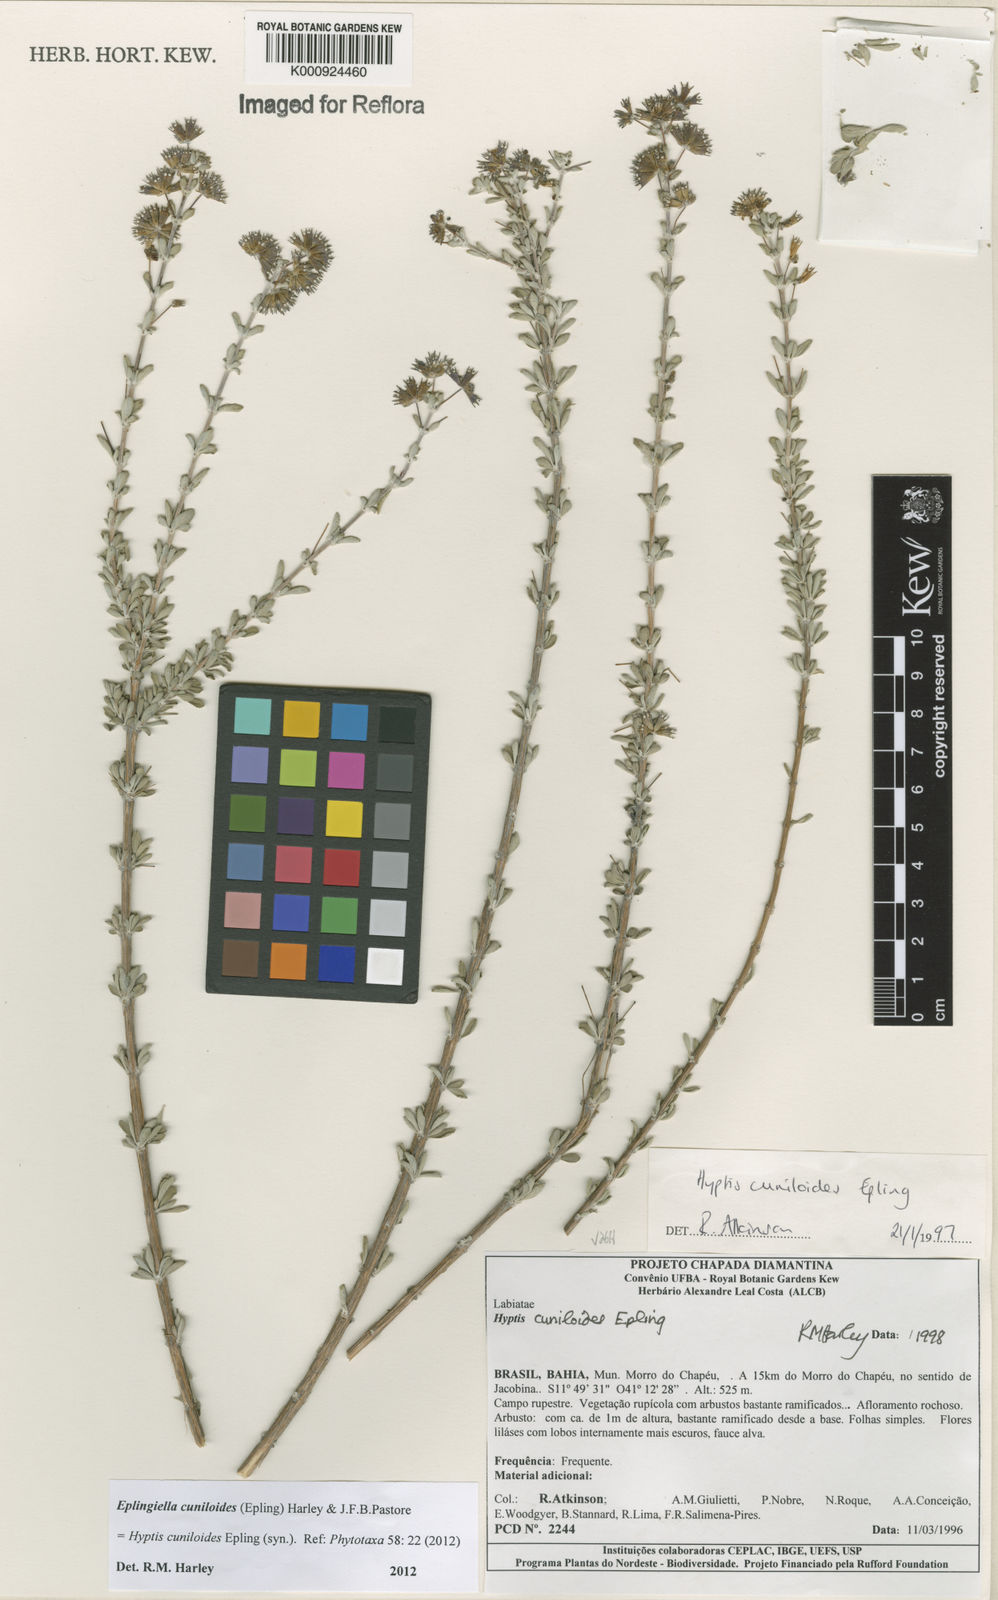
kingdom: Plantae
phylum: Tracheophyta
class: Magnoliopsida
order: Lamiales
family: Lamiaceae
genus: Eplingiella
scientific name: Eplingiella cuniloides
